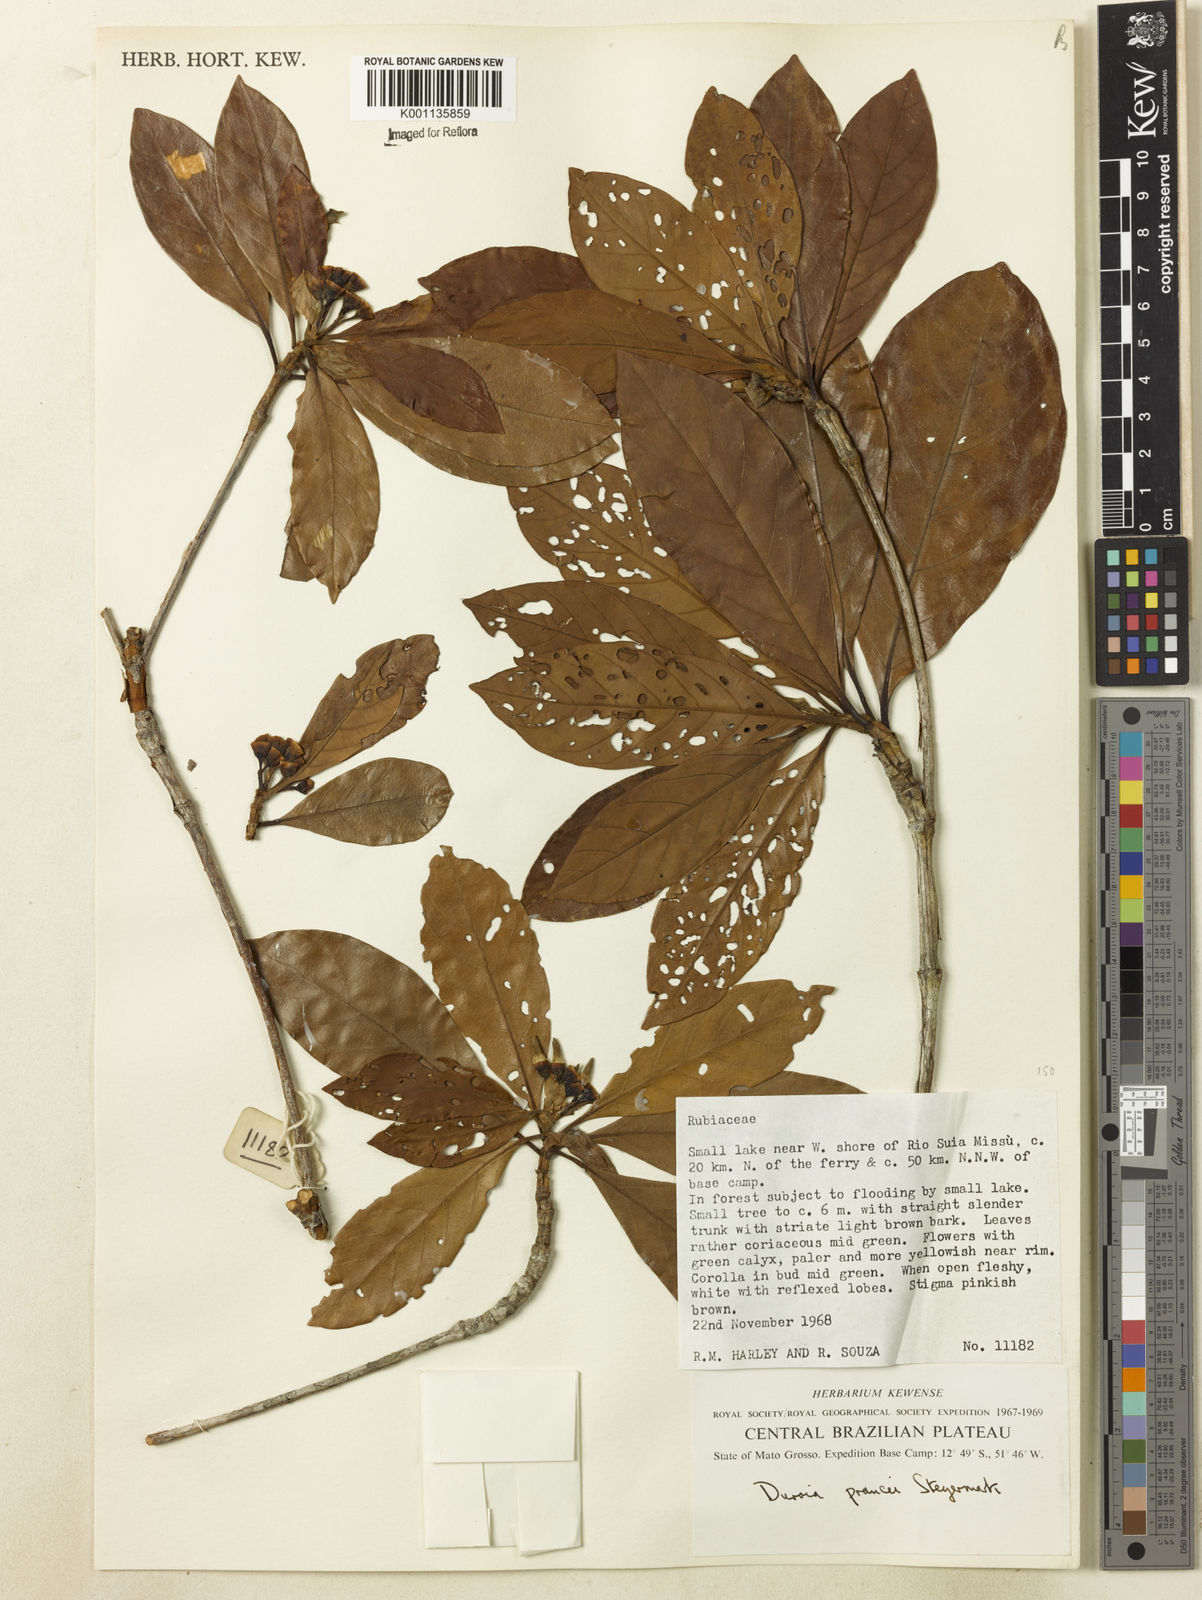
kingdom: Plantae
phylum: Tracheophyta
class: Magnoliopsida
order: Gentianales
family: Rubiaceae
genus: Duroia
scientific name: Duroia prancei
